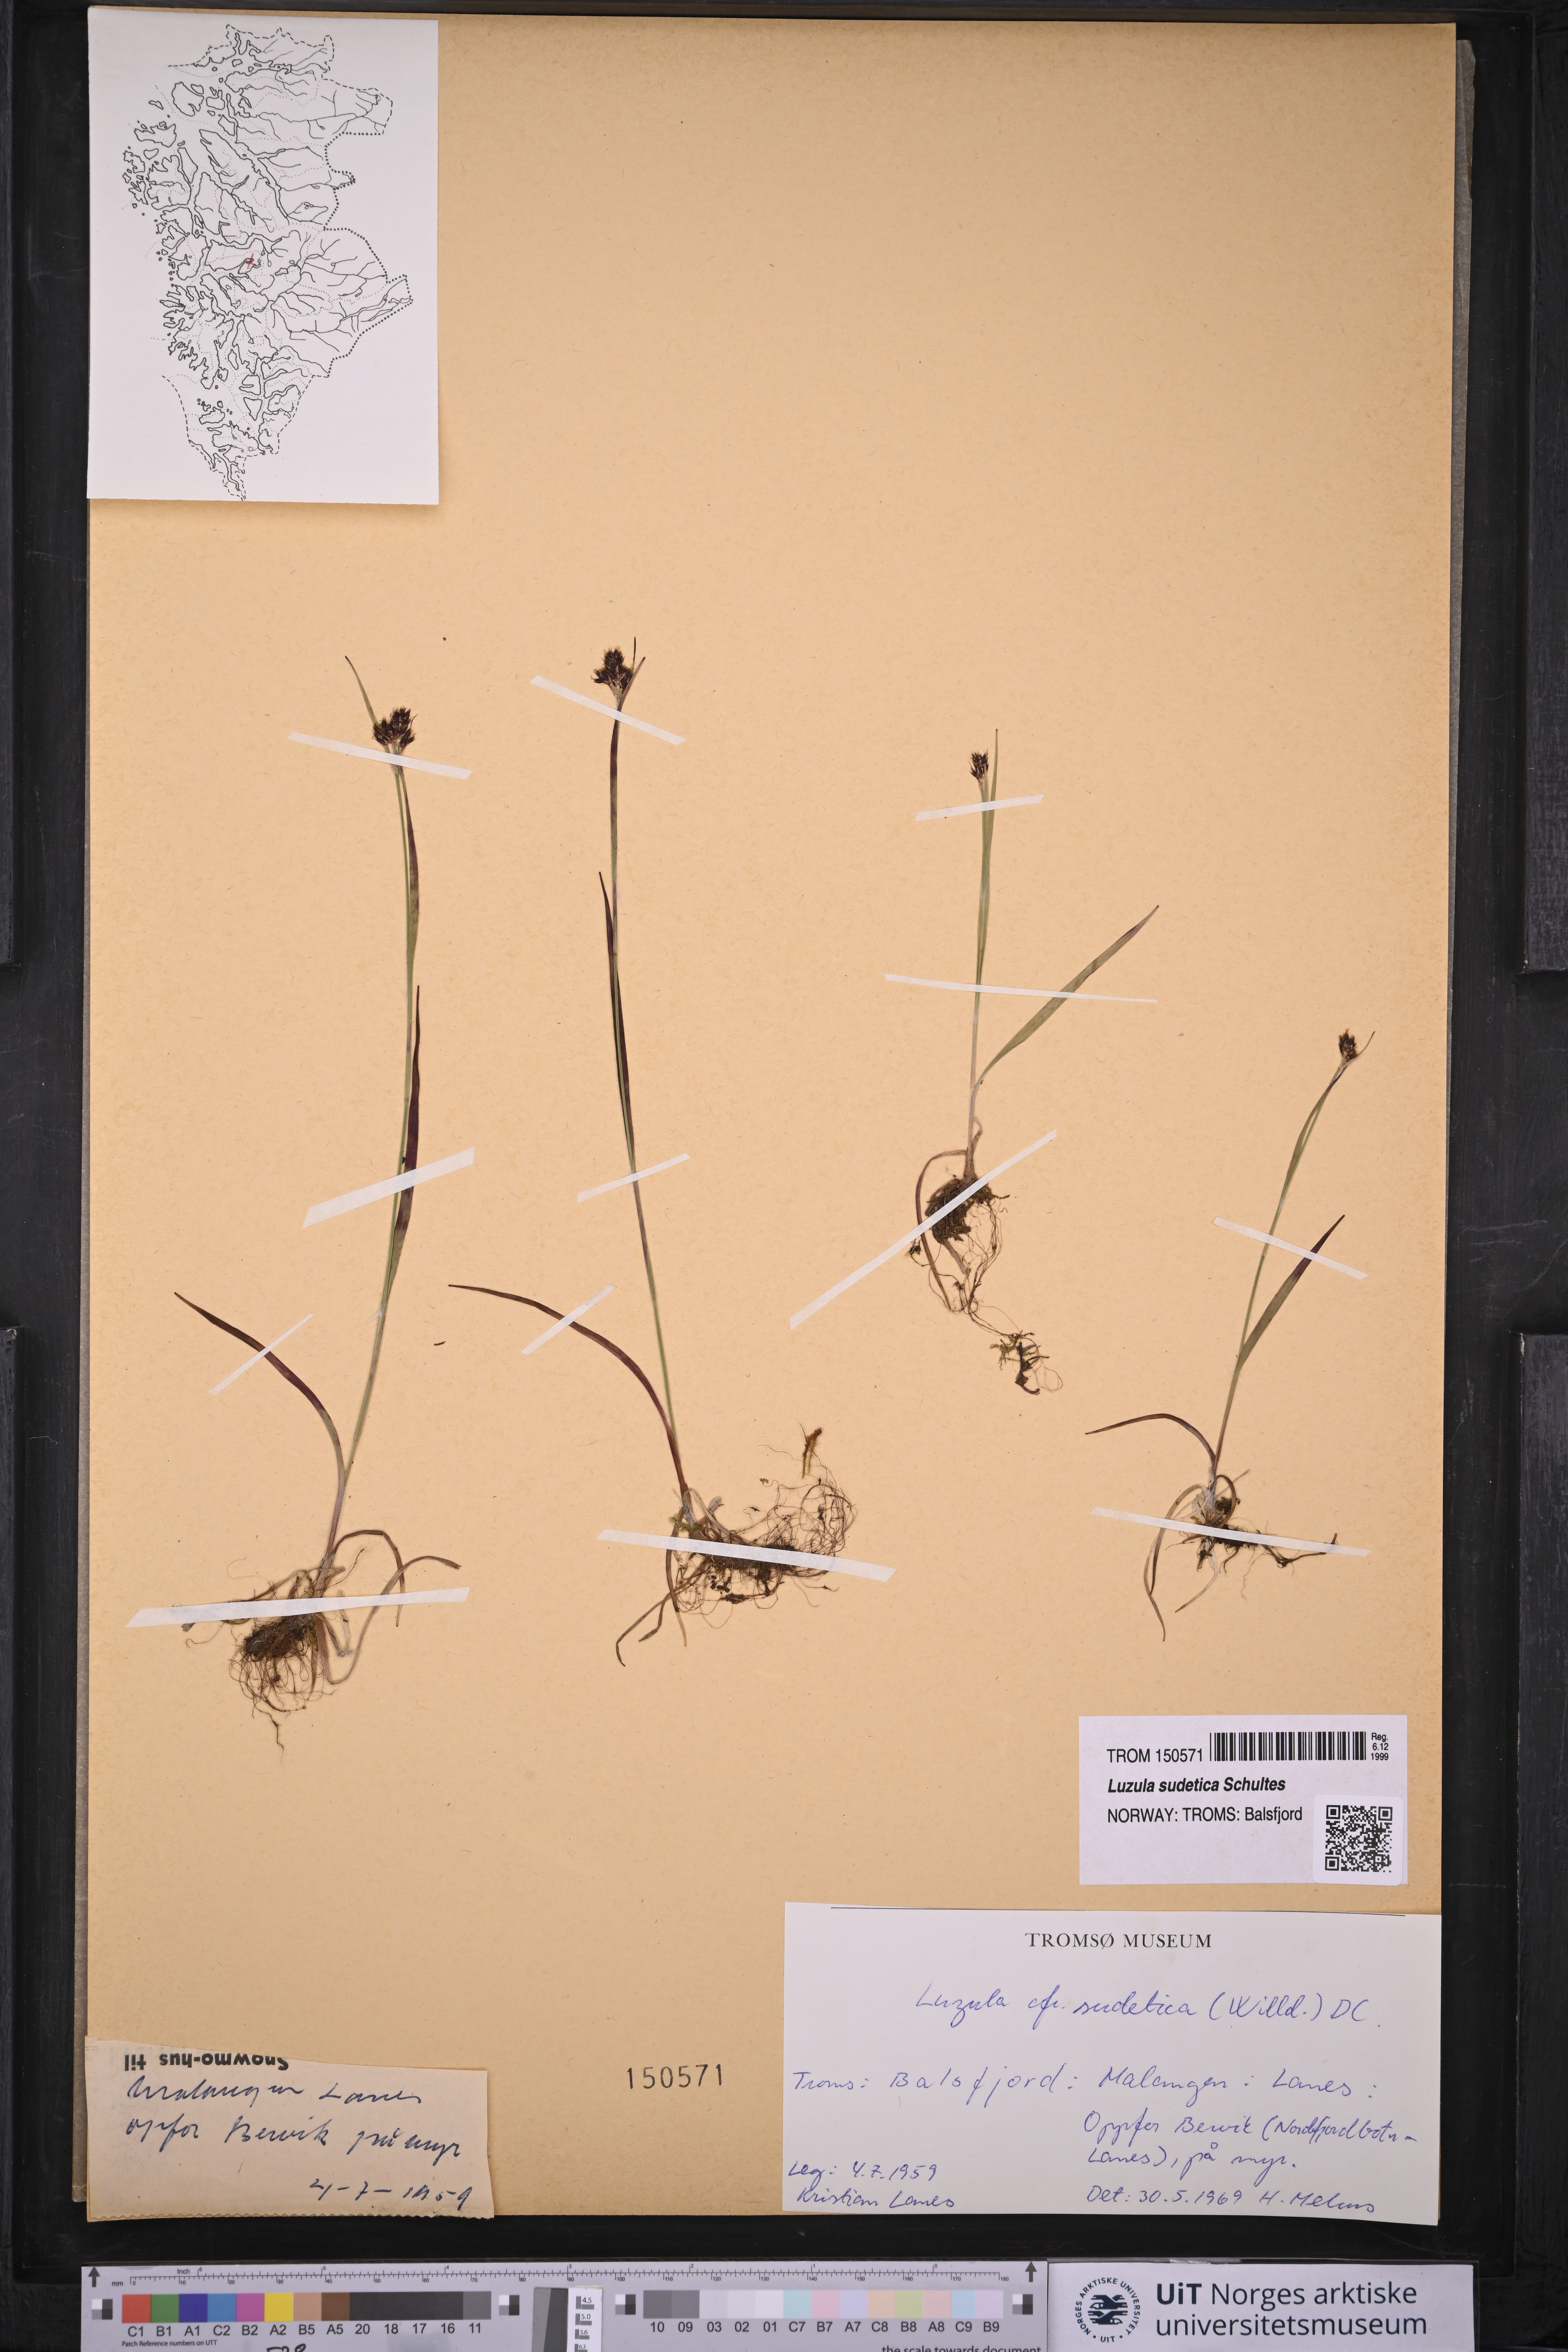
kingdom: Plantae
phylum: Tracheophyta
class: Liliopsida
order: Poales
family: Juncaceae
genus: Luzula
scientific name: Luzula sudetica
